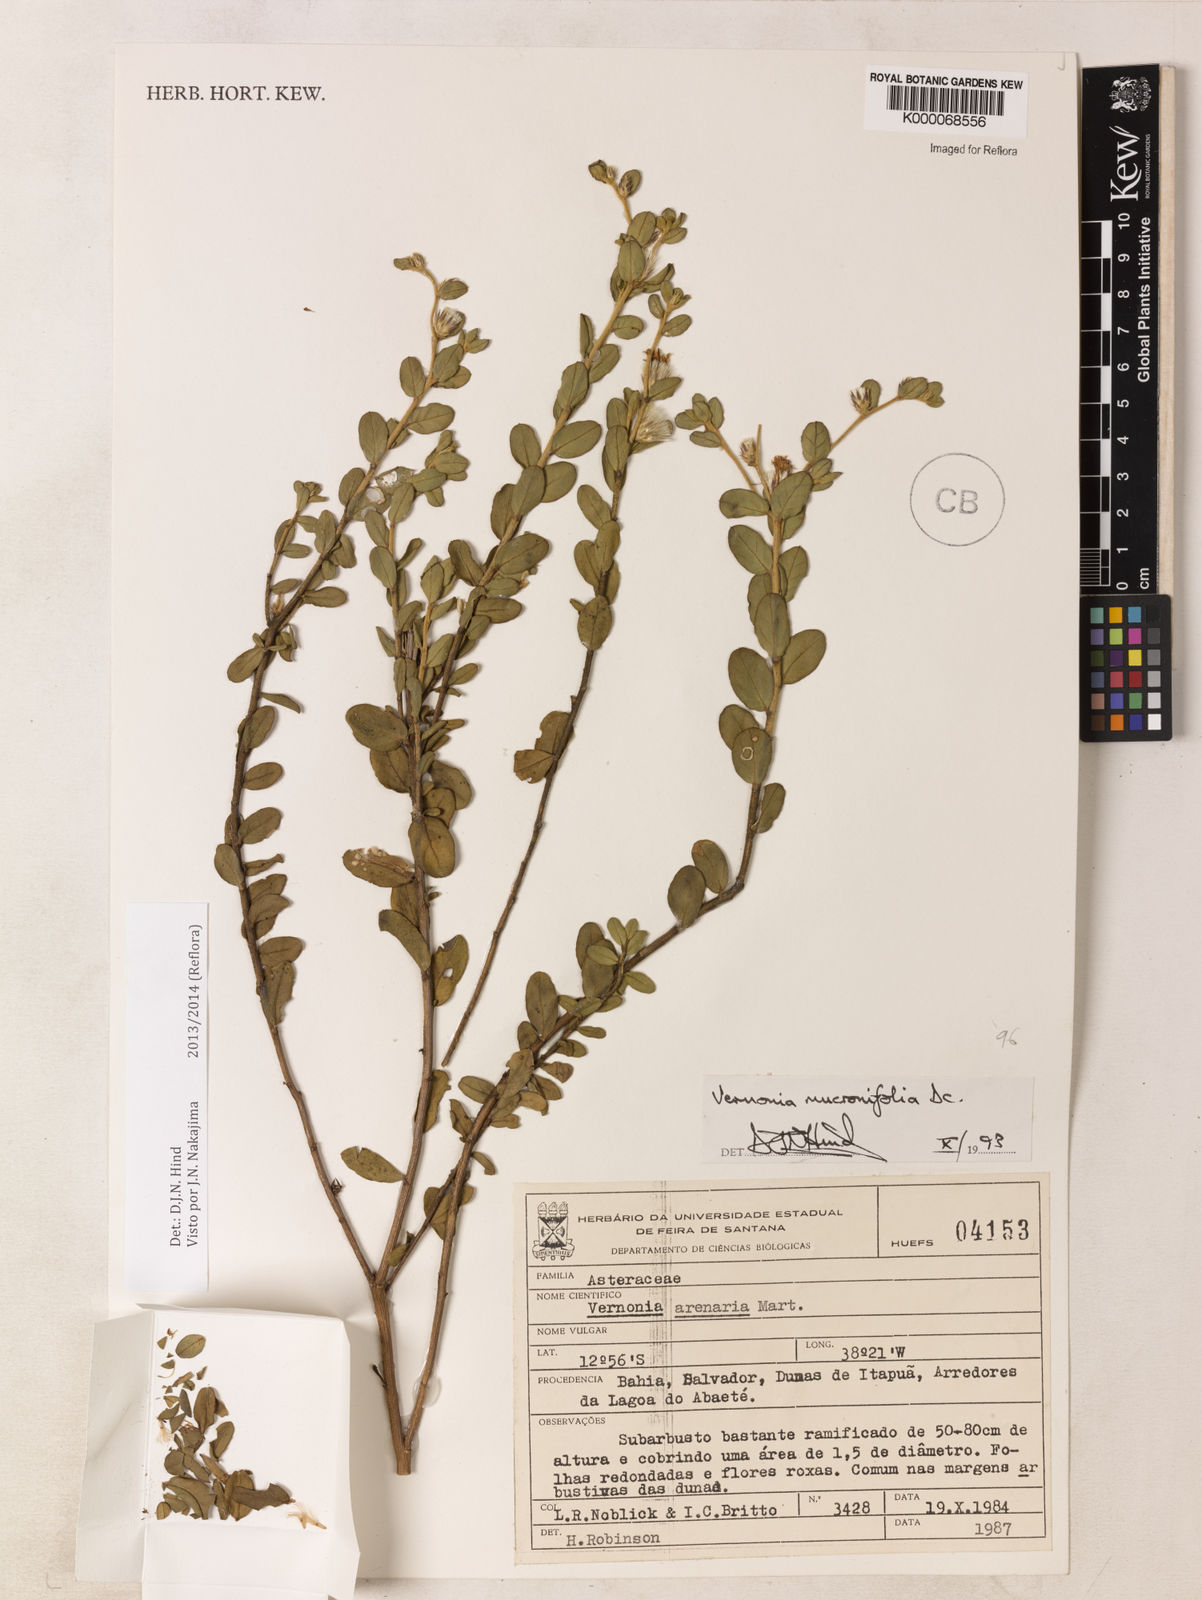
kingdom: Plantae
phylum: Tracheophyta
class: Magnoliopsida
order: Asterales
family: Asteraceae
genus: Lepidaploa
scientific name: Lepidaploa mucronifolia
